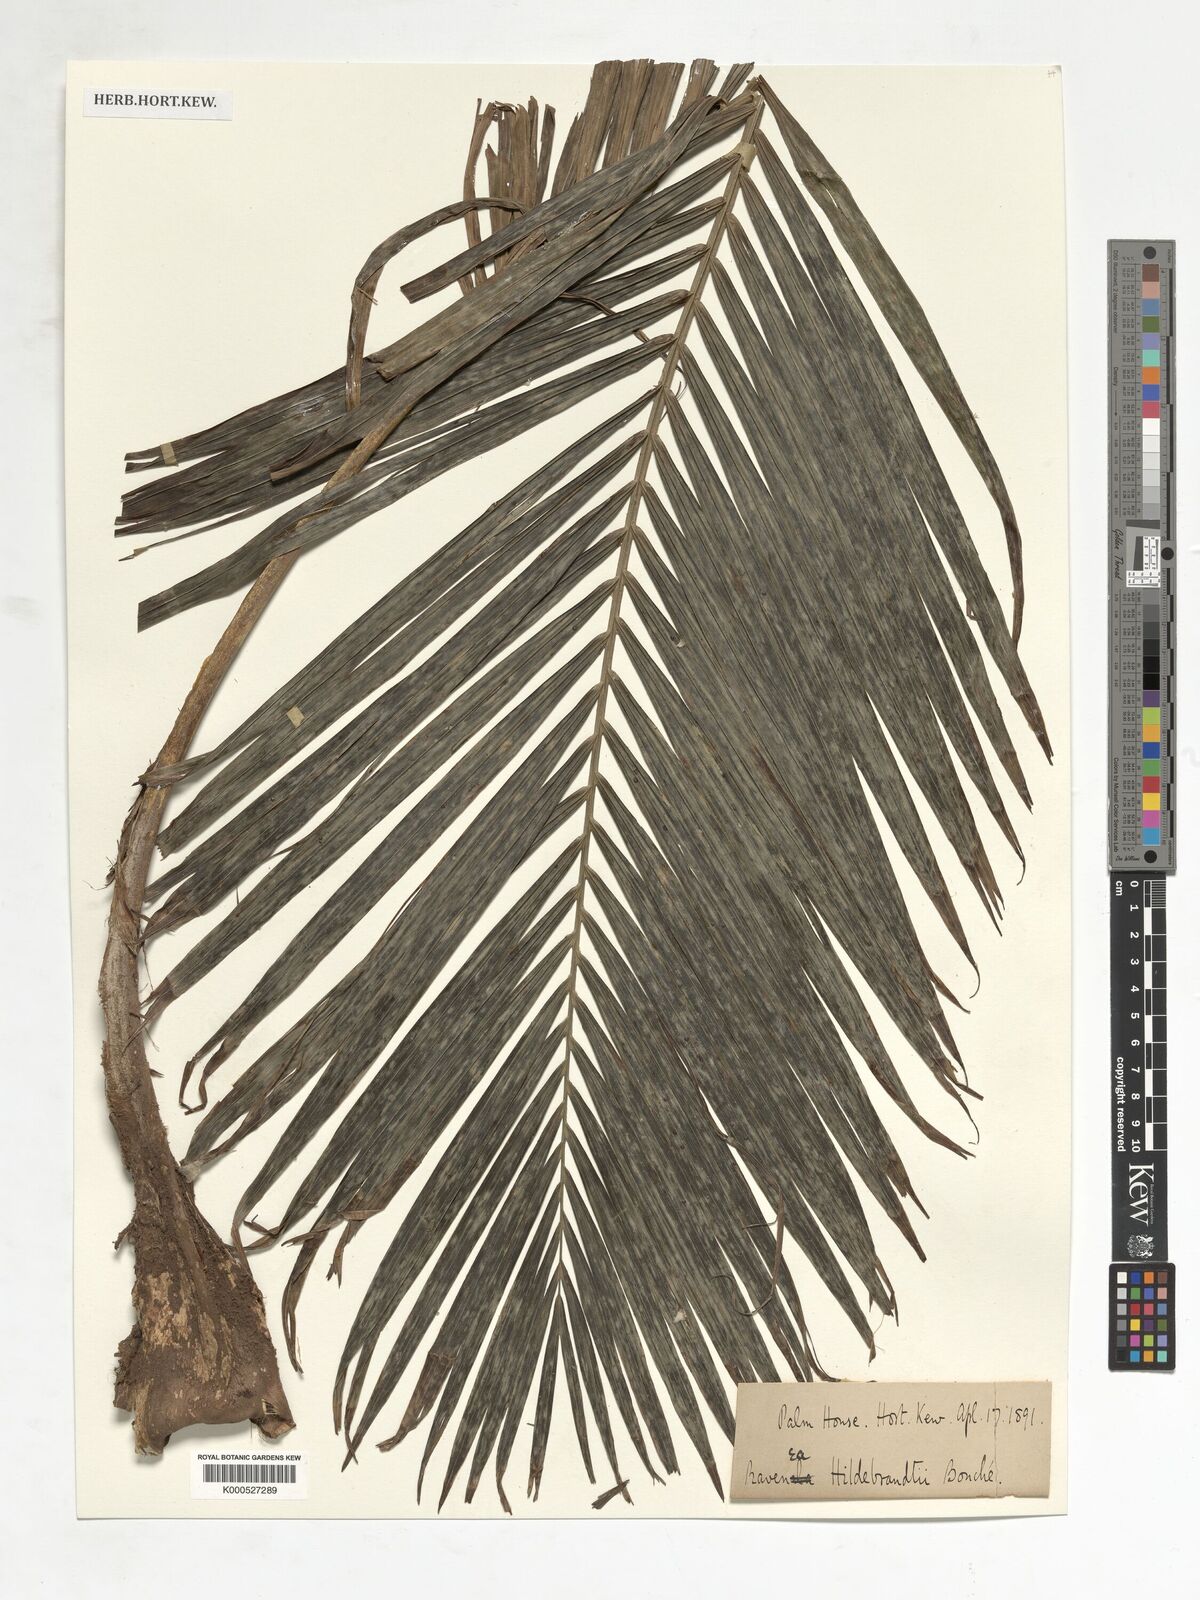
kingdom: Plantae
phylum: Tracheophyta
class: Liliopsida
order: Arecales
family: Arecaceae
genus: Ravenea
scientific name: Ravenea hildebrandtii
